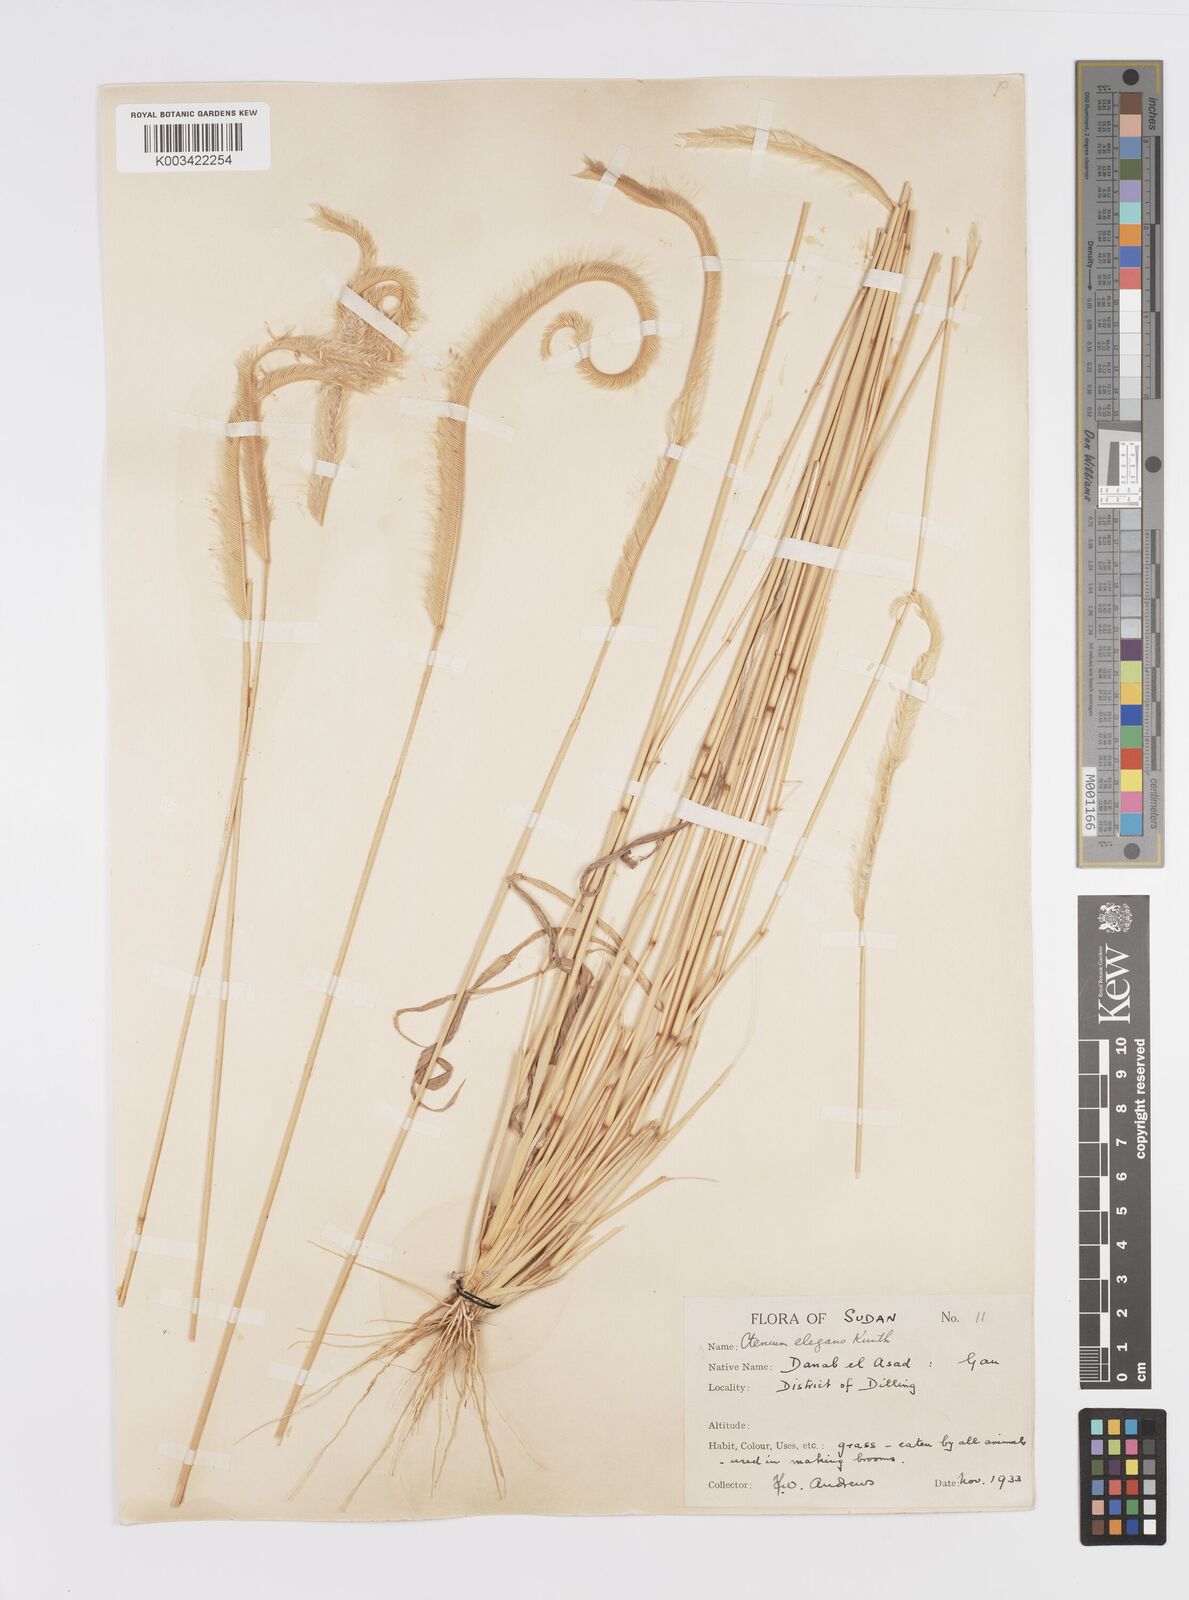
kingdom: Plantae
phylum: Tracheophyta
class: Liliopsida
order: Poales
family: Poaceae
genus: Ctenium
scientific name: Ctenium elegans
